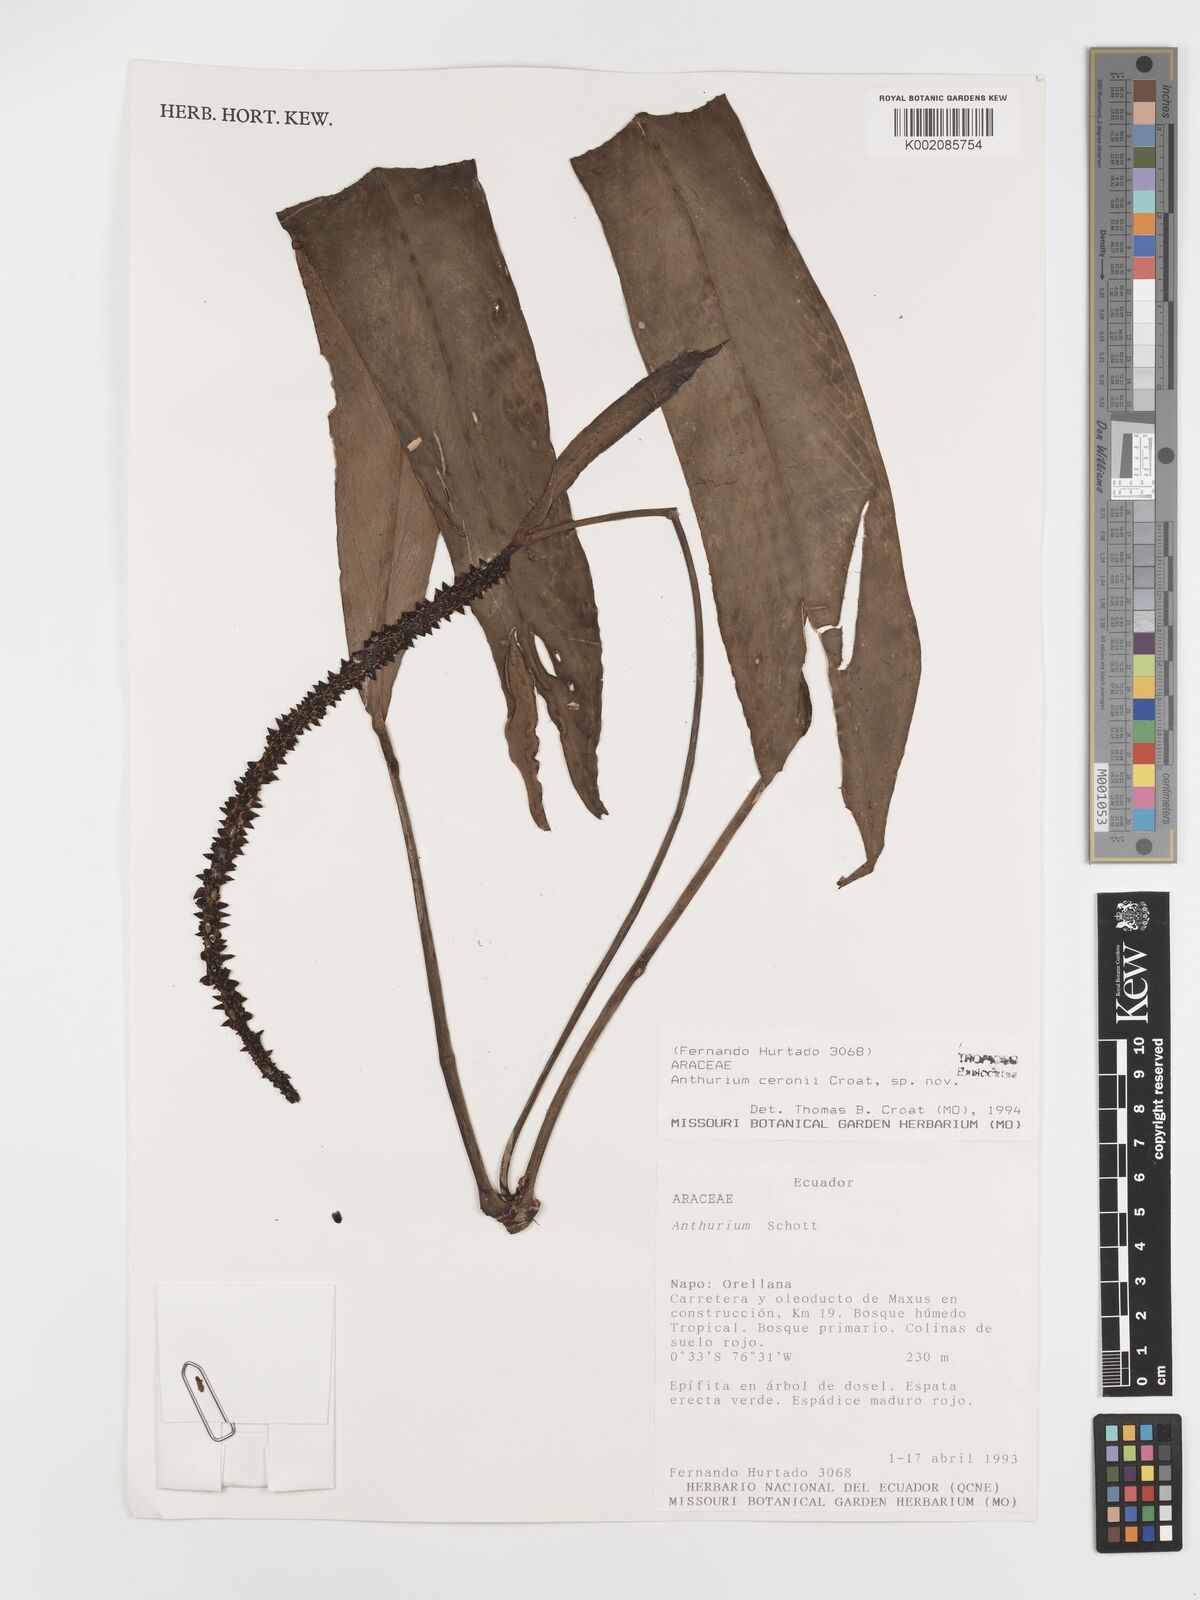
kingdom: Plantae
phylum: Tracheophyta
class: Liliopsida
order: Alismatales
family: Araceae
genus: Anthurium
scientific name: Anthurium ceronii
